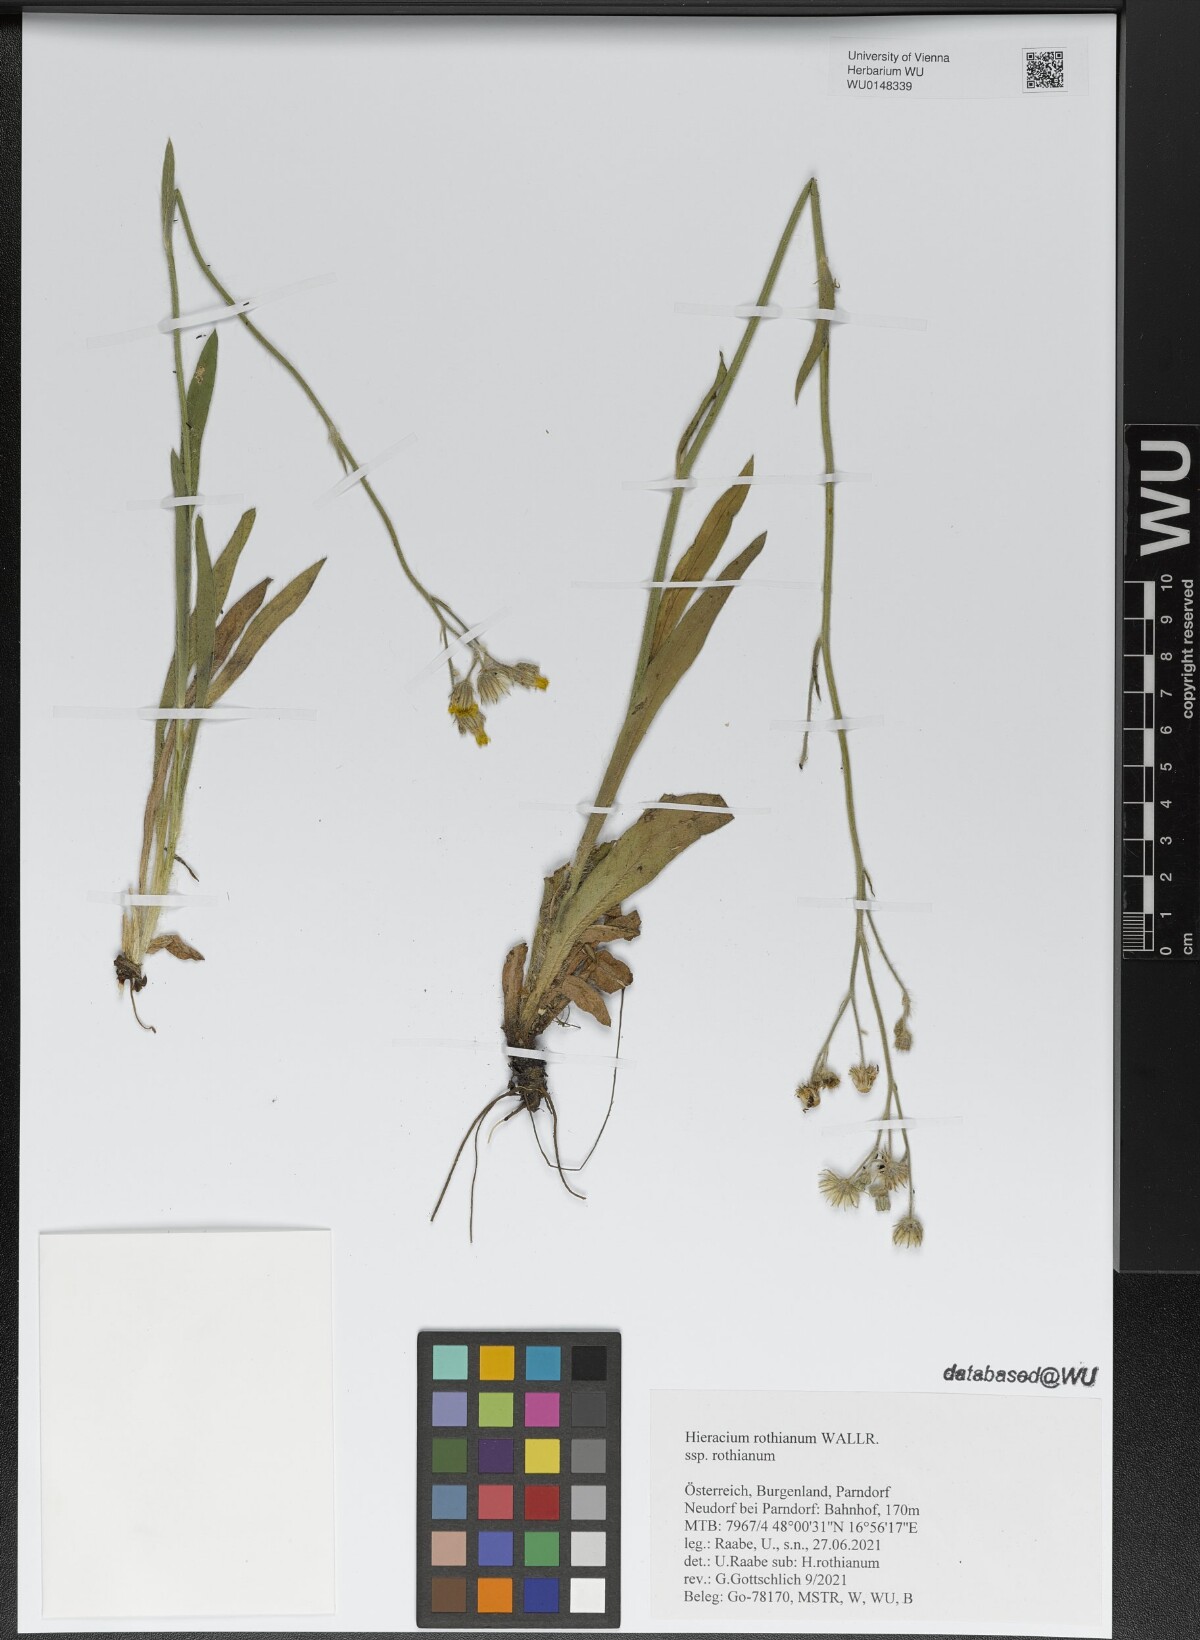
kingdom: Plantae
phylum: Tracheophyta
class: Magnoliopsida
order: Asterales
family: Asteraceae
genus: Pilosella
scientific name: Pilosella rothiana
